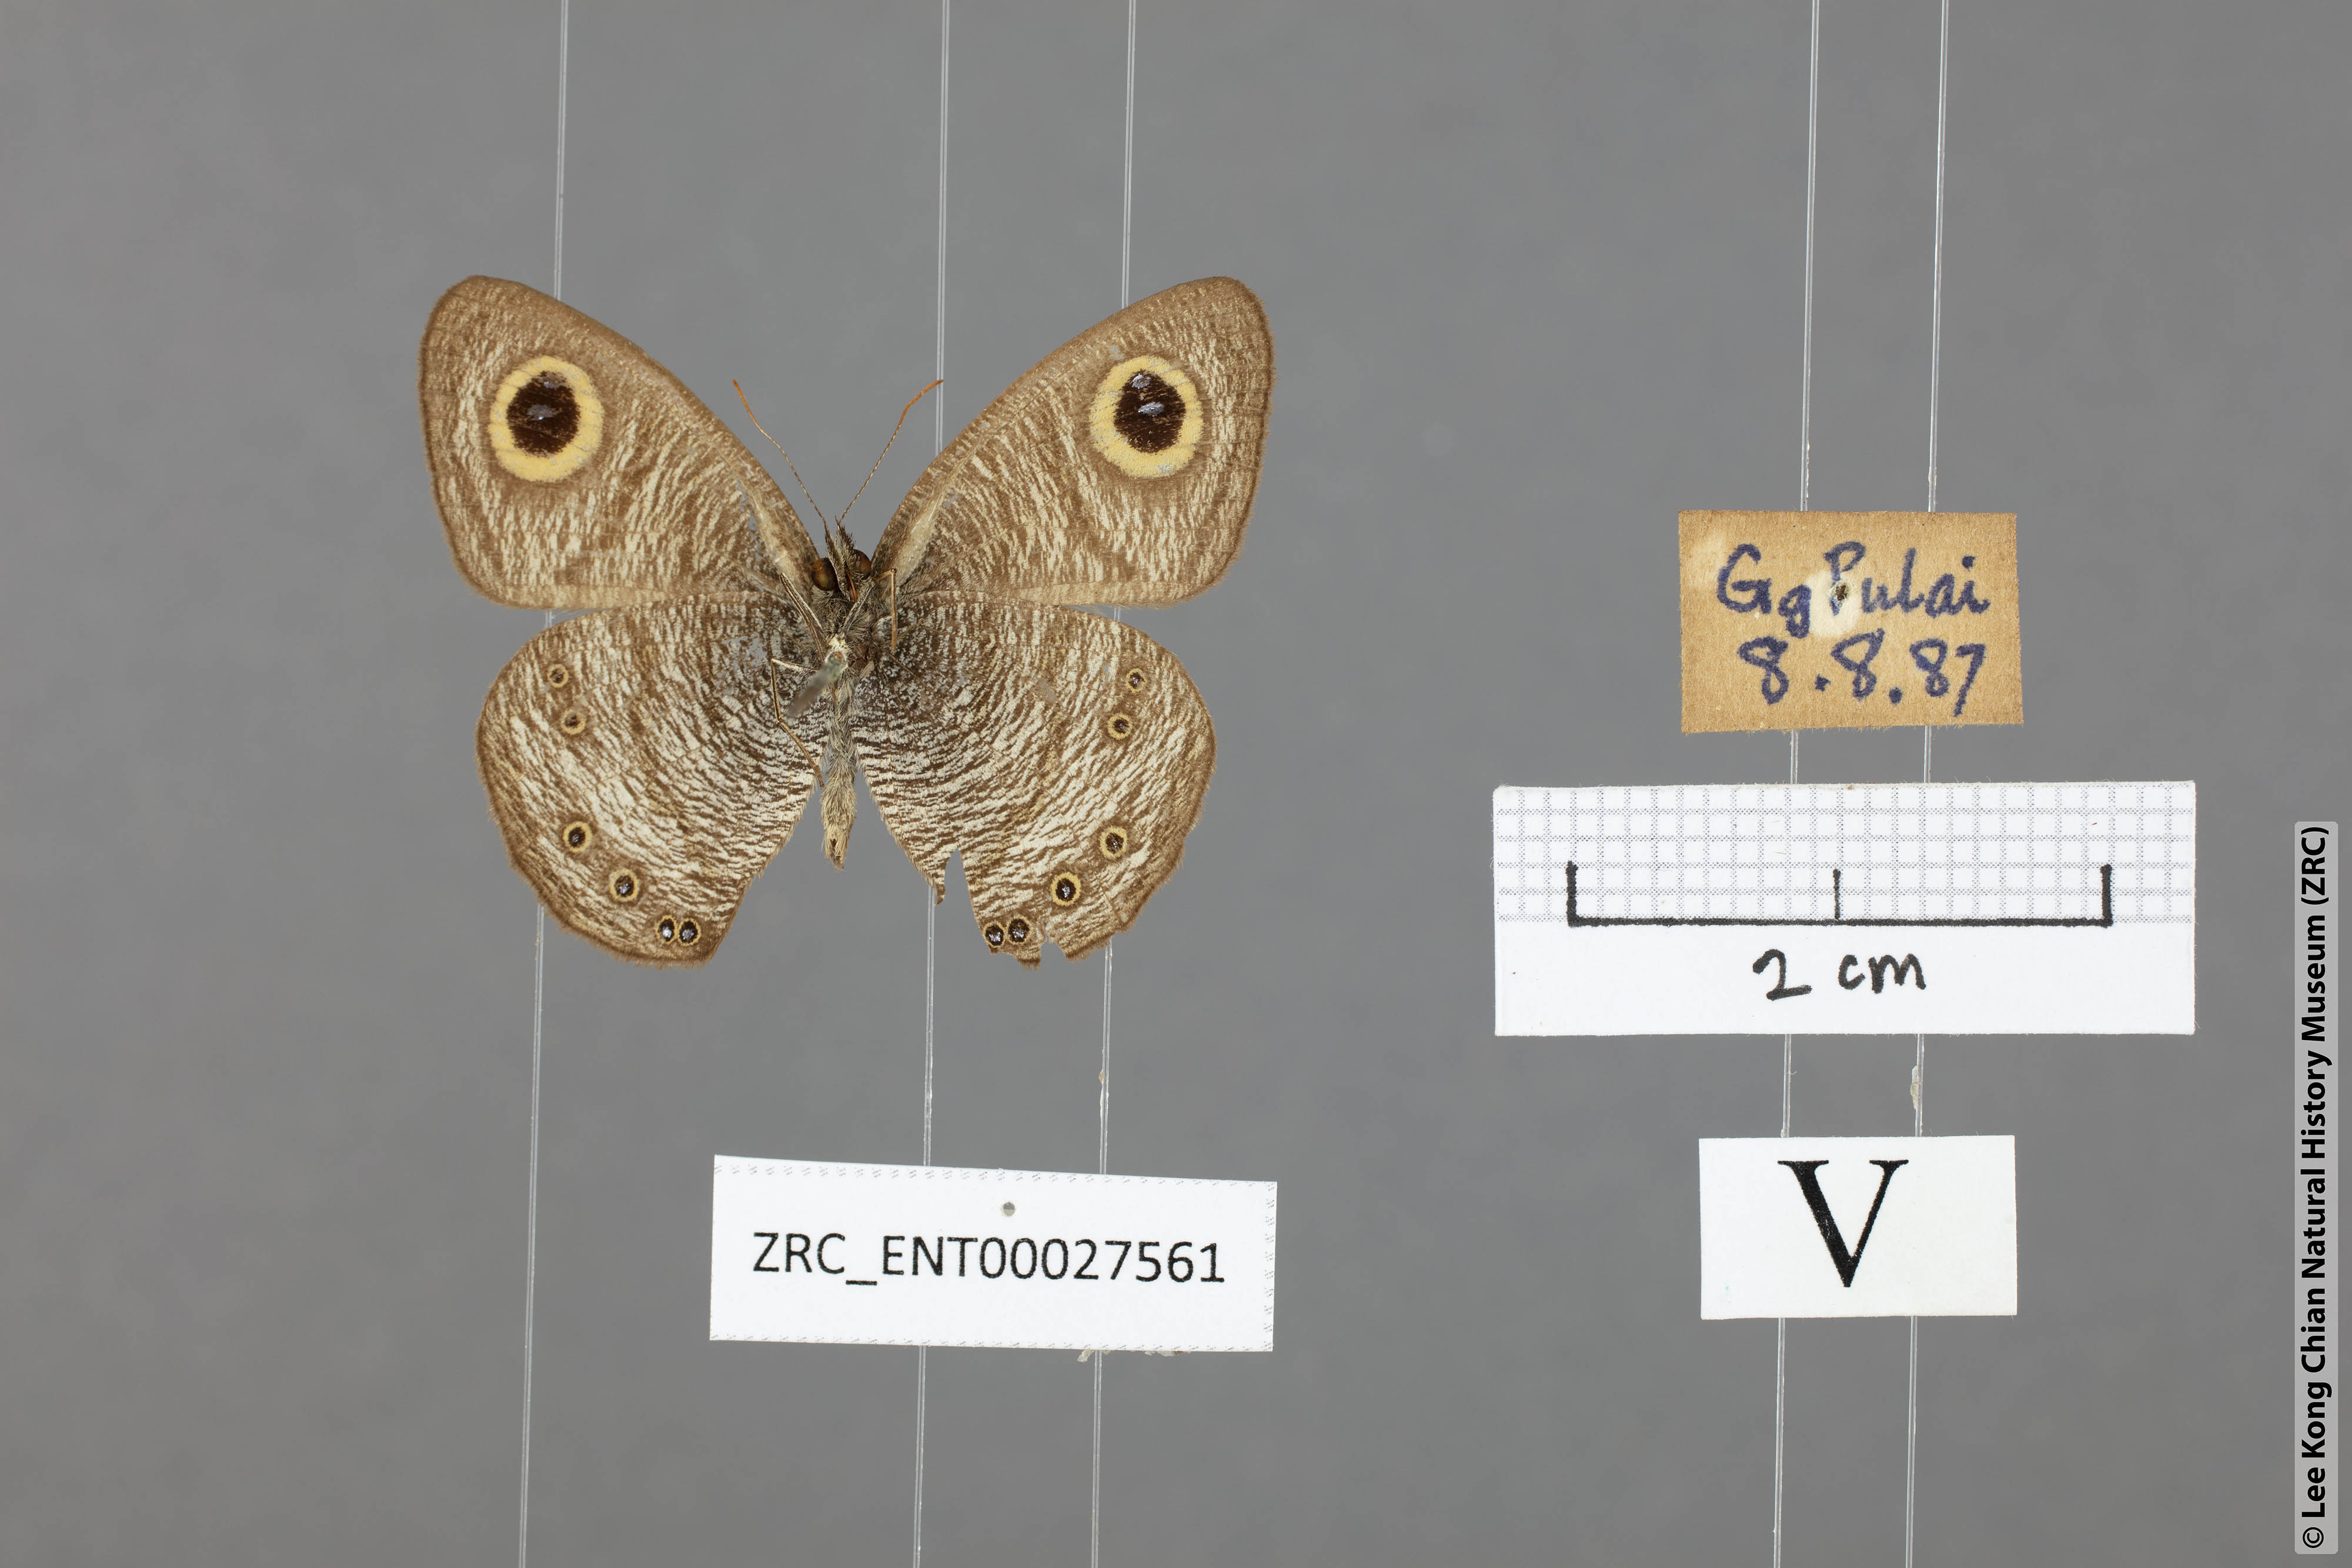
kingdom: Animalia
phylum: Arthropoda
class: Insecta
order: Lepidoptera
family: Nymphalidae
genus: Ypthima
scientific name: Ypthima baldus
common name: Common five-ring
